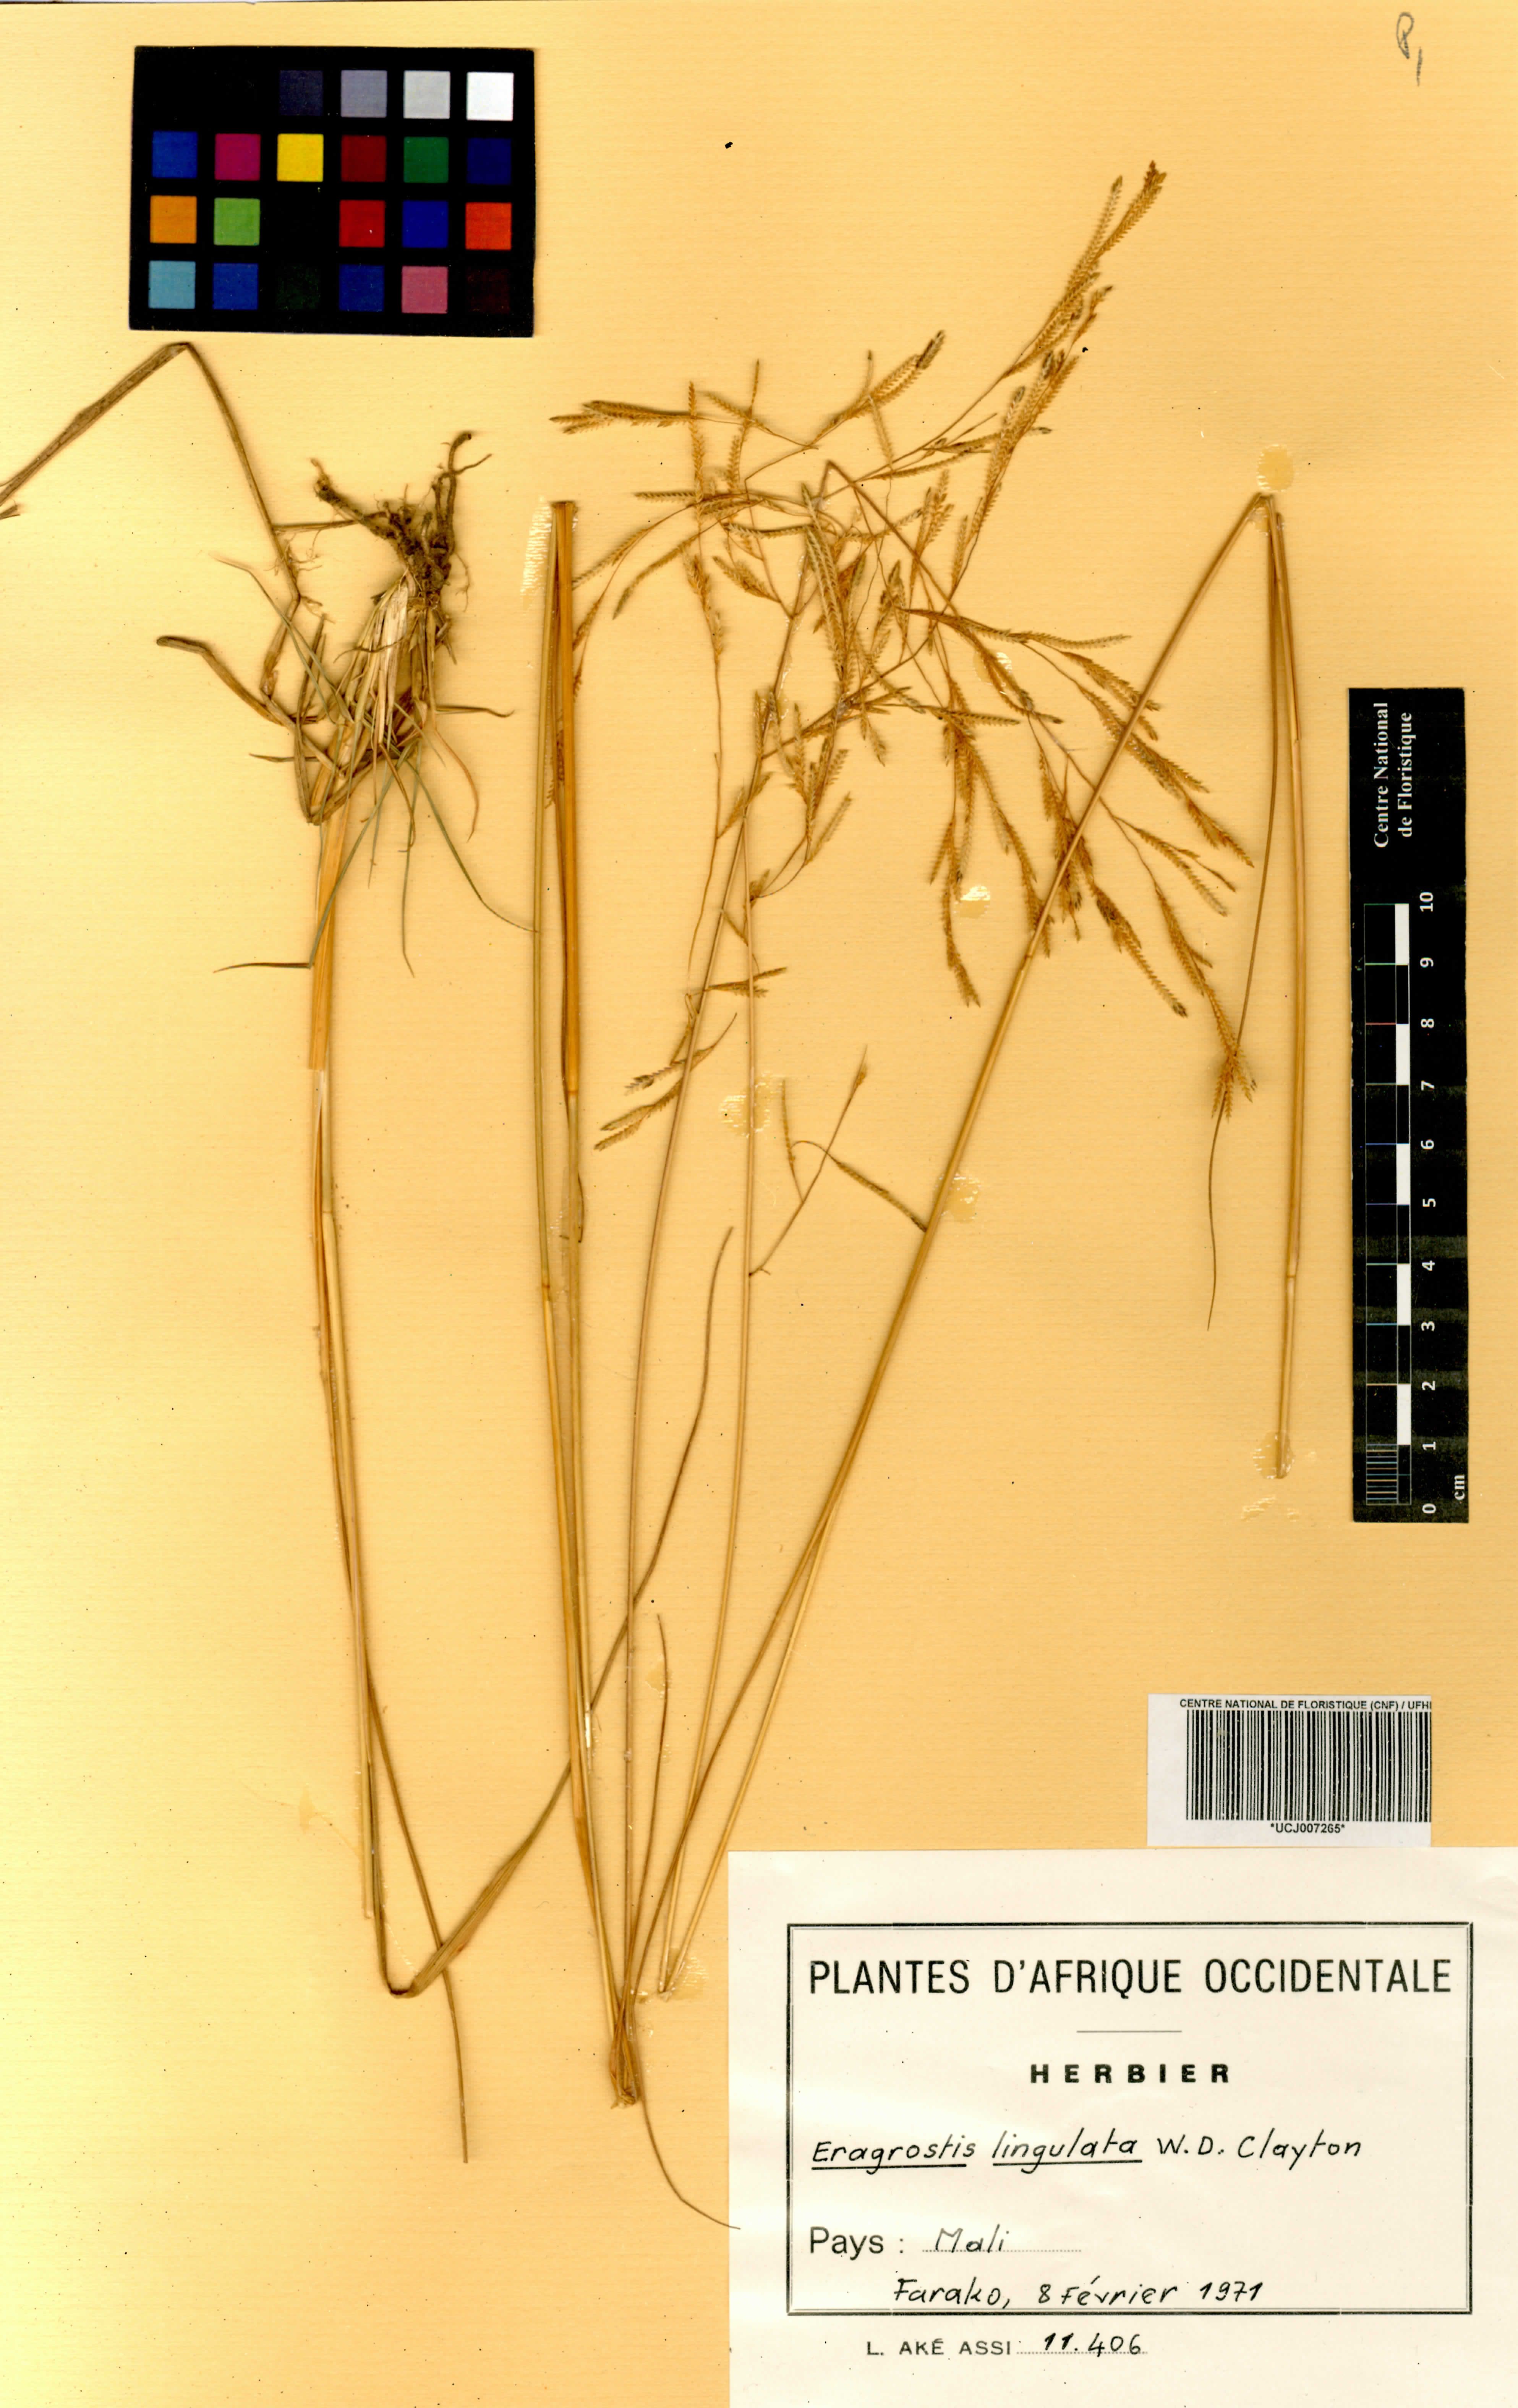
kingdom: Plantae
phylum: Tracheophyta
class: Liliopsida
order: Poales
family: Poaceae
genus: Eragrostis
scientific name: Eragrostis lingulata
